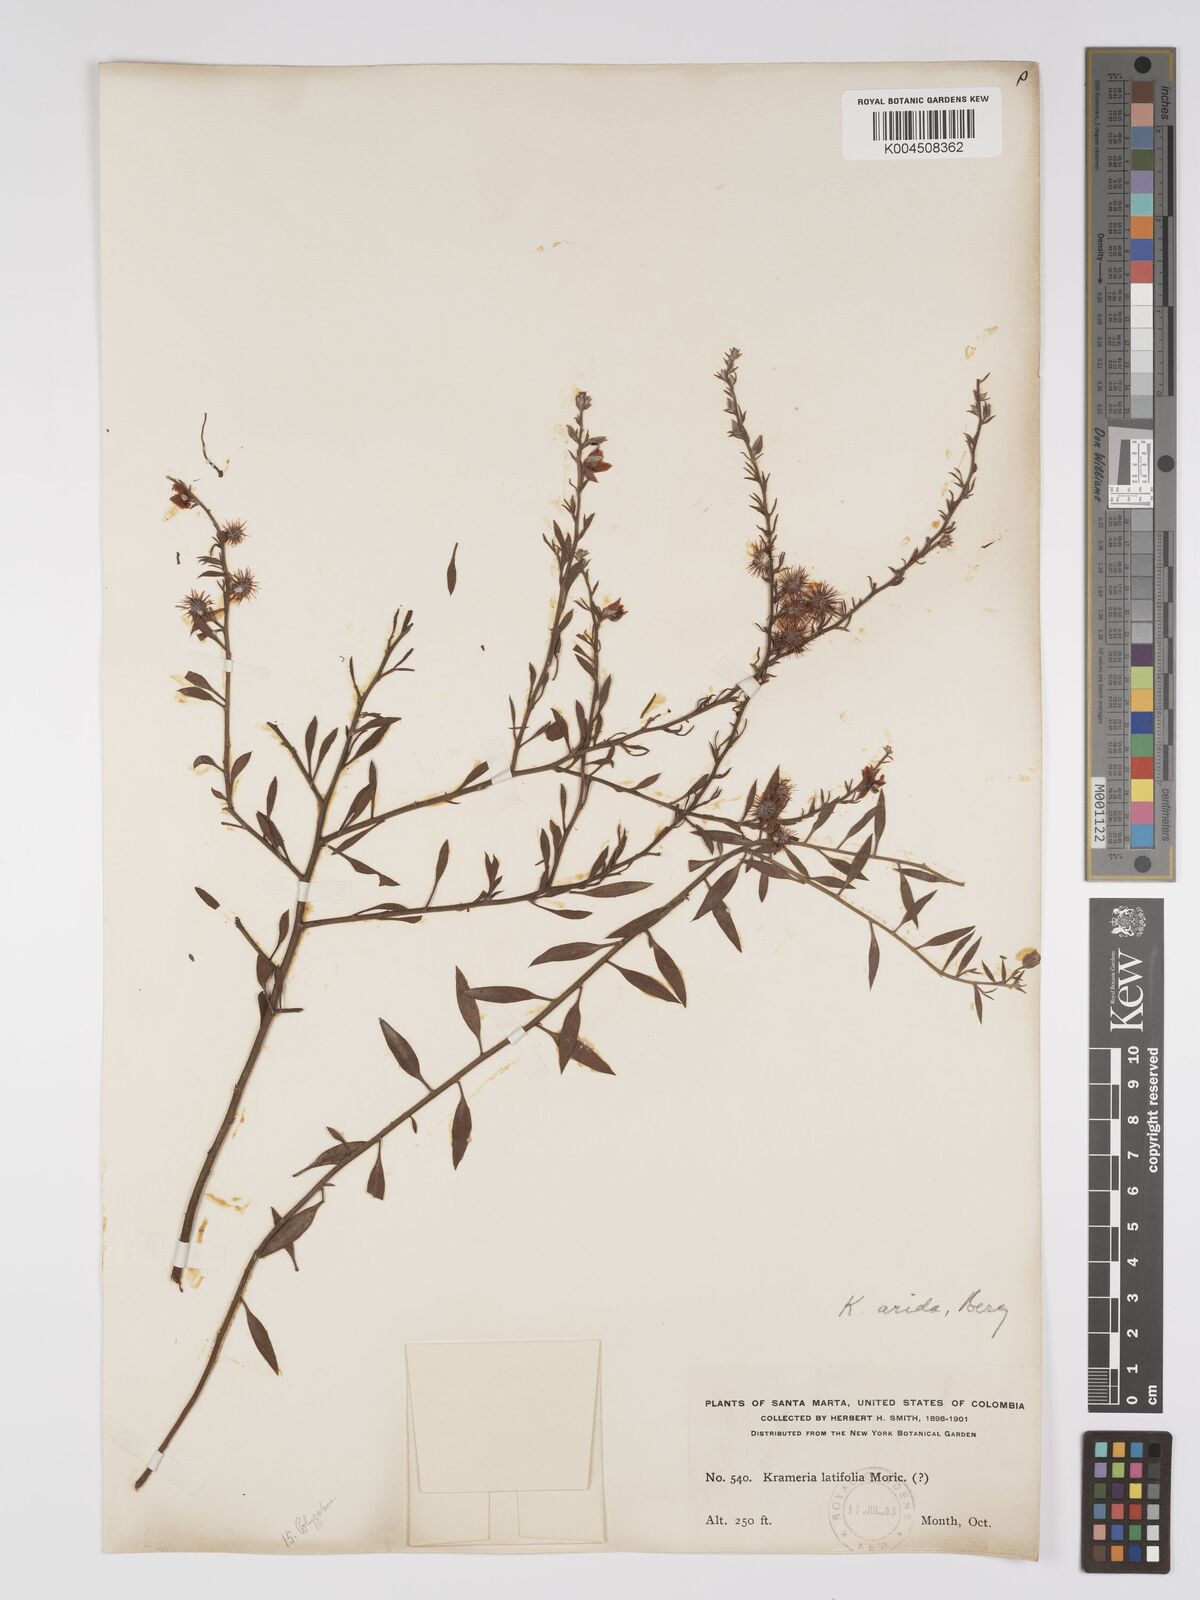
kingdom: Plantae
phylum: Tracheophyta
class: Magnoliopsida
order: Zygophyllales
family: Krameriaceae
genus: Krameria
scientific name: Krameria ixine
